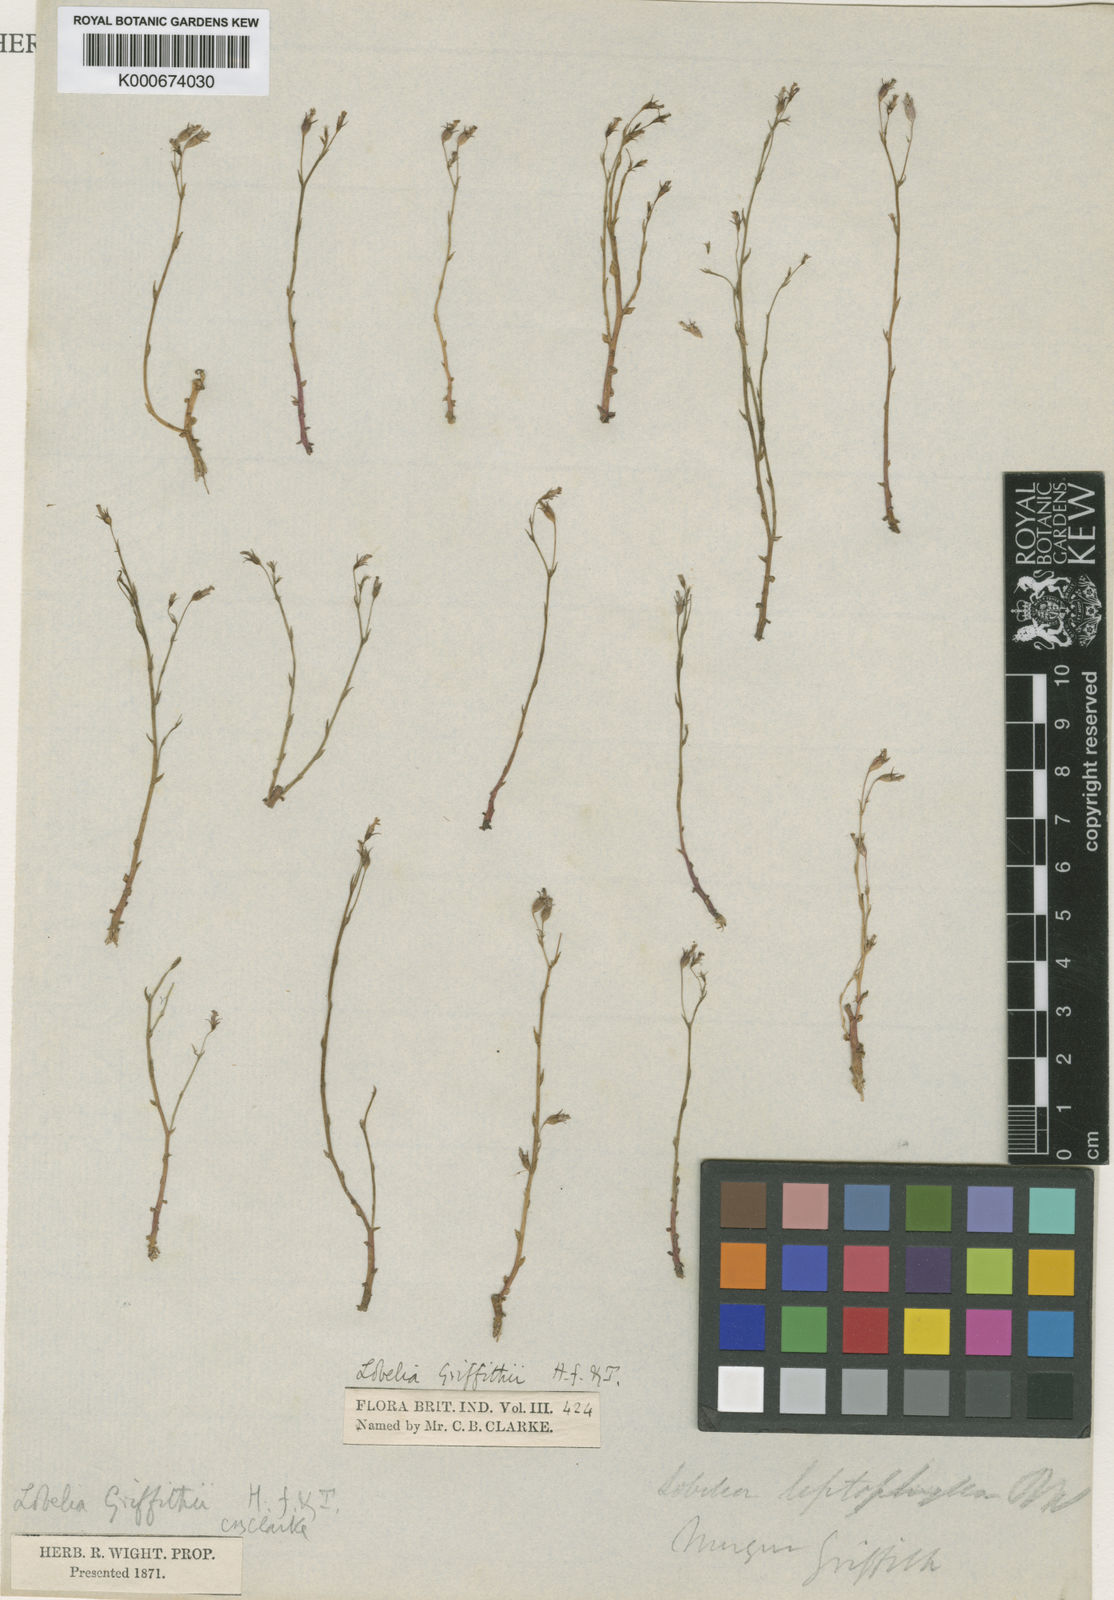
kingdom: Plantae
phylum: Tracheophyta
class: Magnoliopsida
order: Asterales
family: Campanulaceae
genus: Lobelia
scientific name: Lobelia alsinoides
